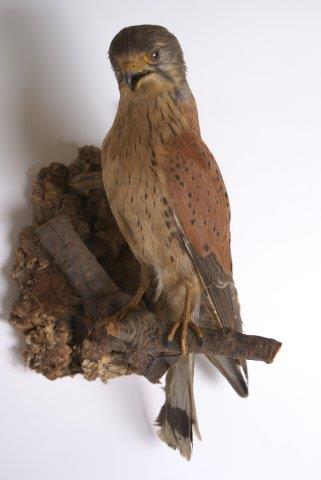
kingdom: Animalia
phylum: Chordata
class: Aves
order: Falconiformes
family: Falconidae
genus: Falco
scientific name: Falco tinnunculus
